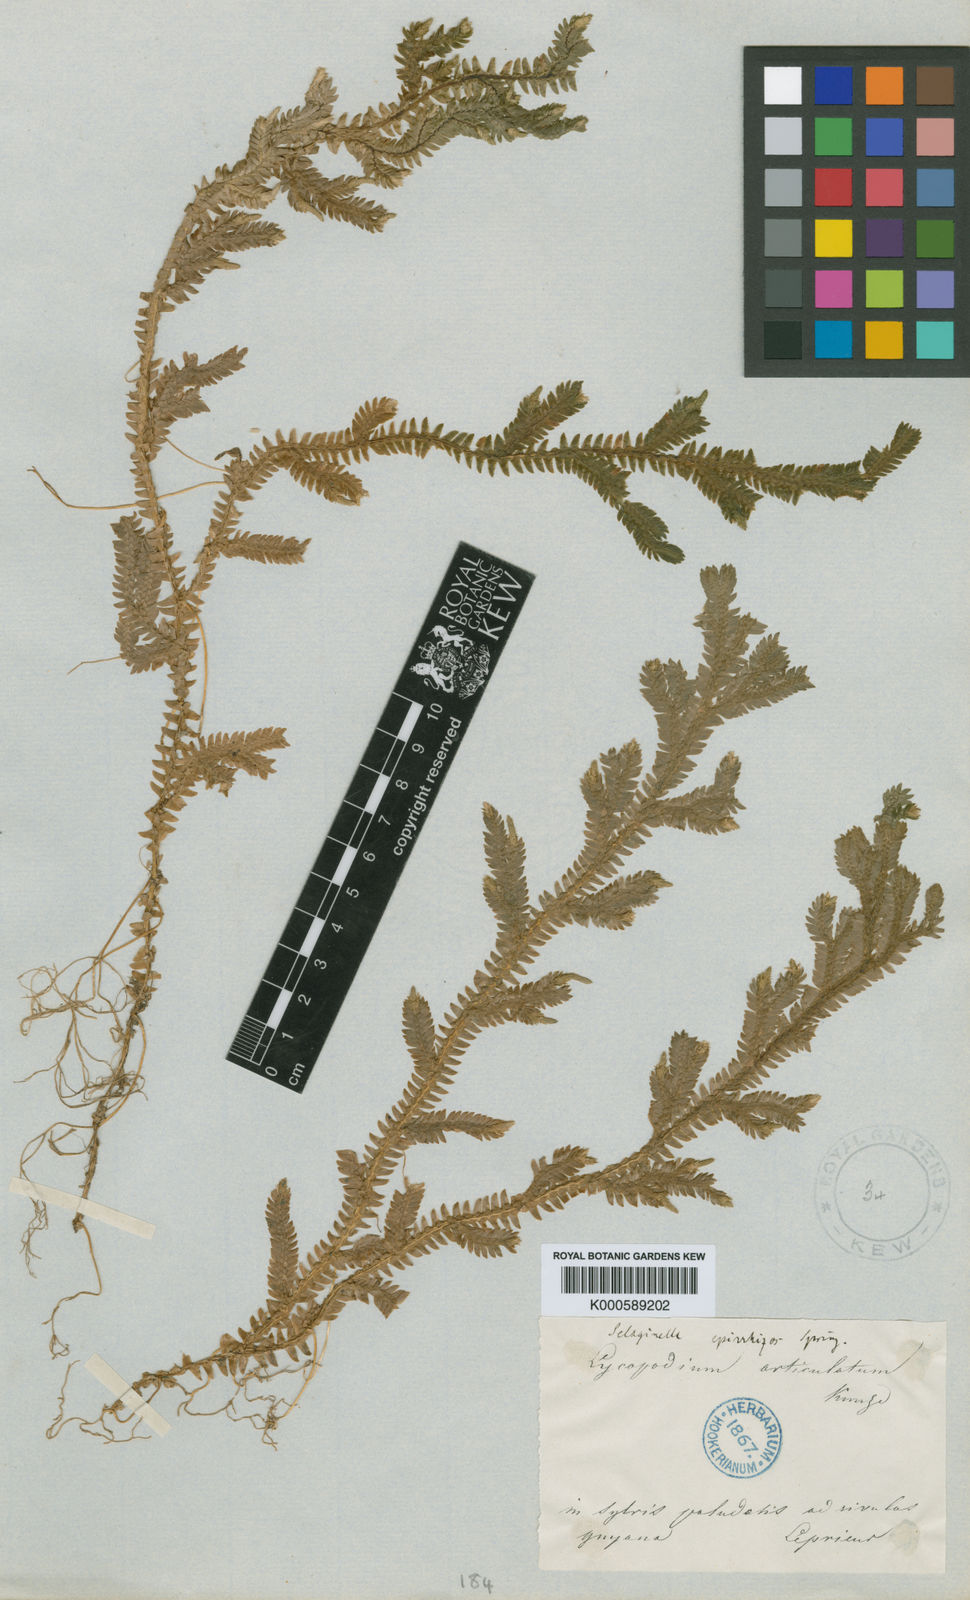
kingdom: Plantae
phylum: Tracheophyta
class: Lycopodiopsida
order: Selaginellales
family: Selaginellaceae
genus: Selaginella
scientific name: Selaginella epirrhizos
